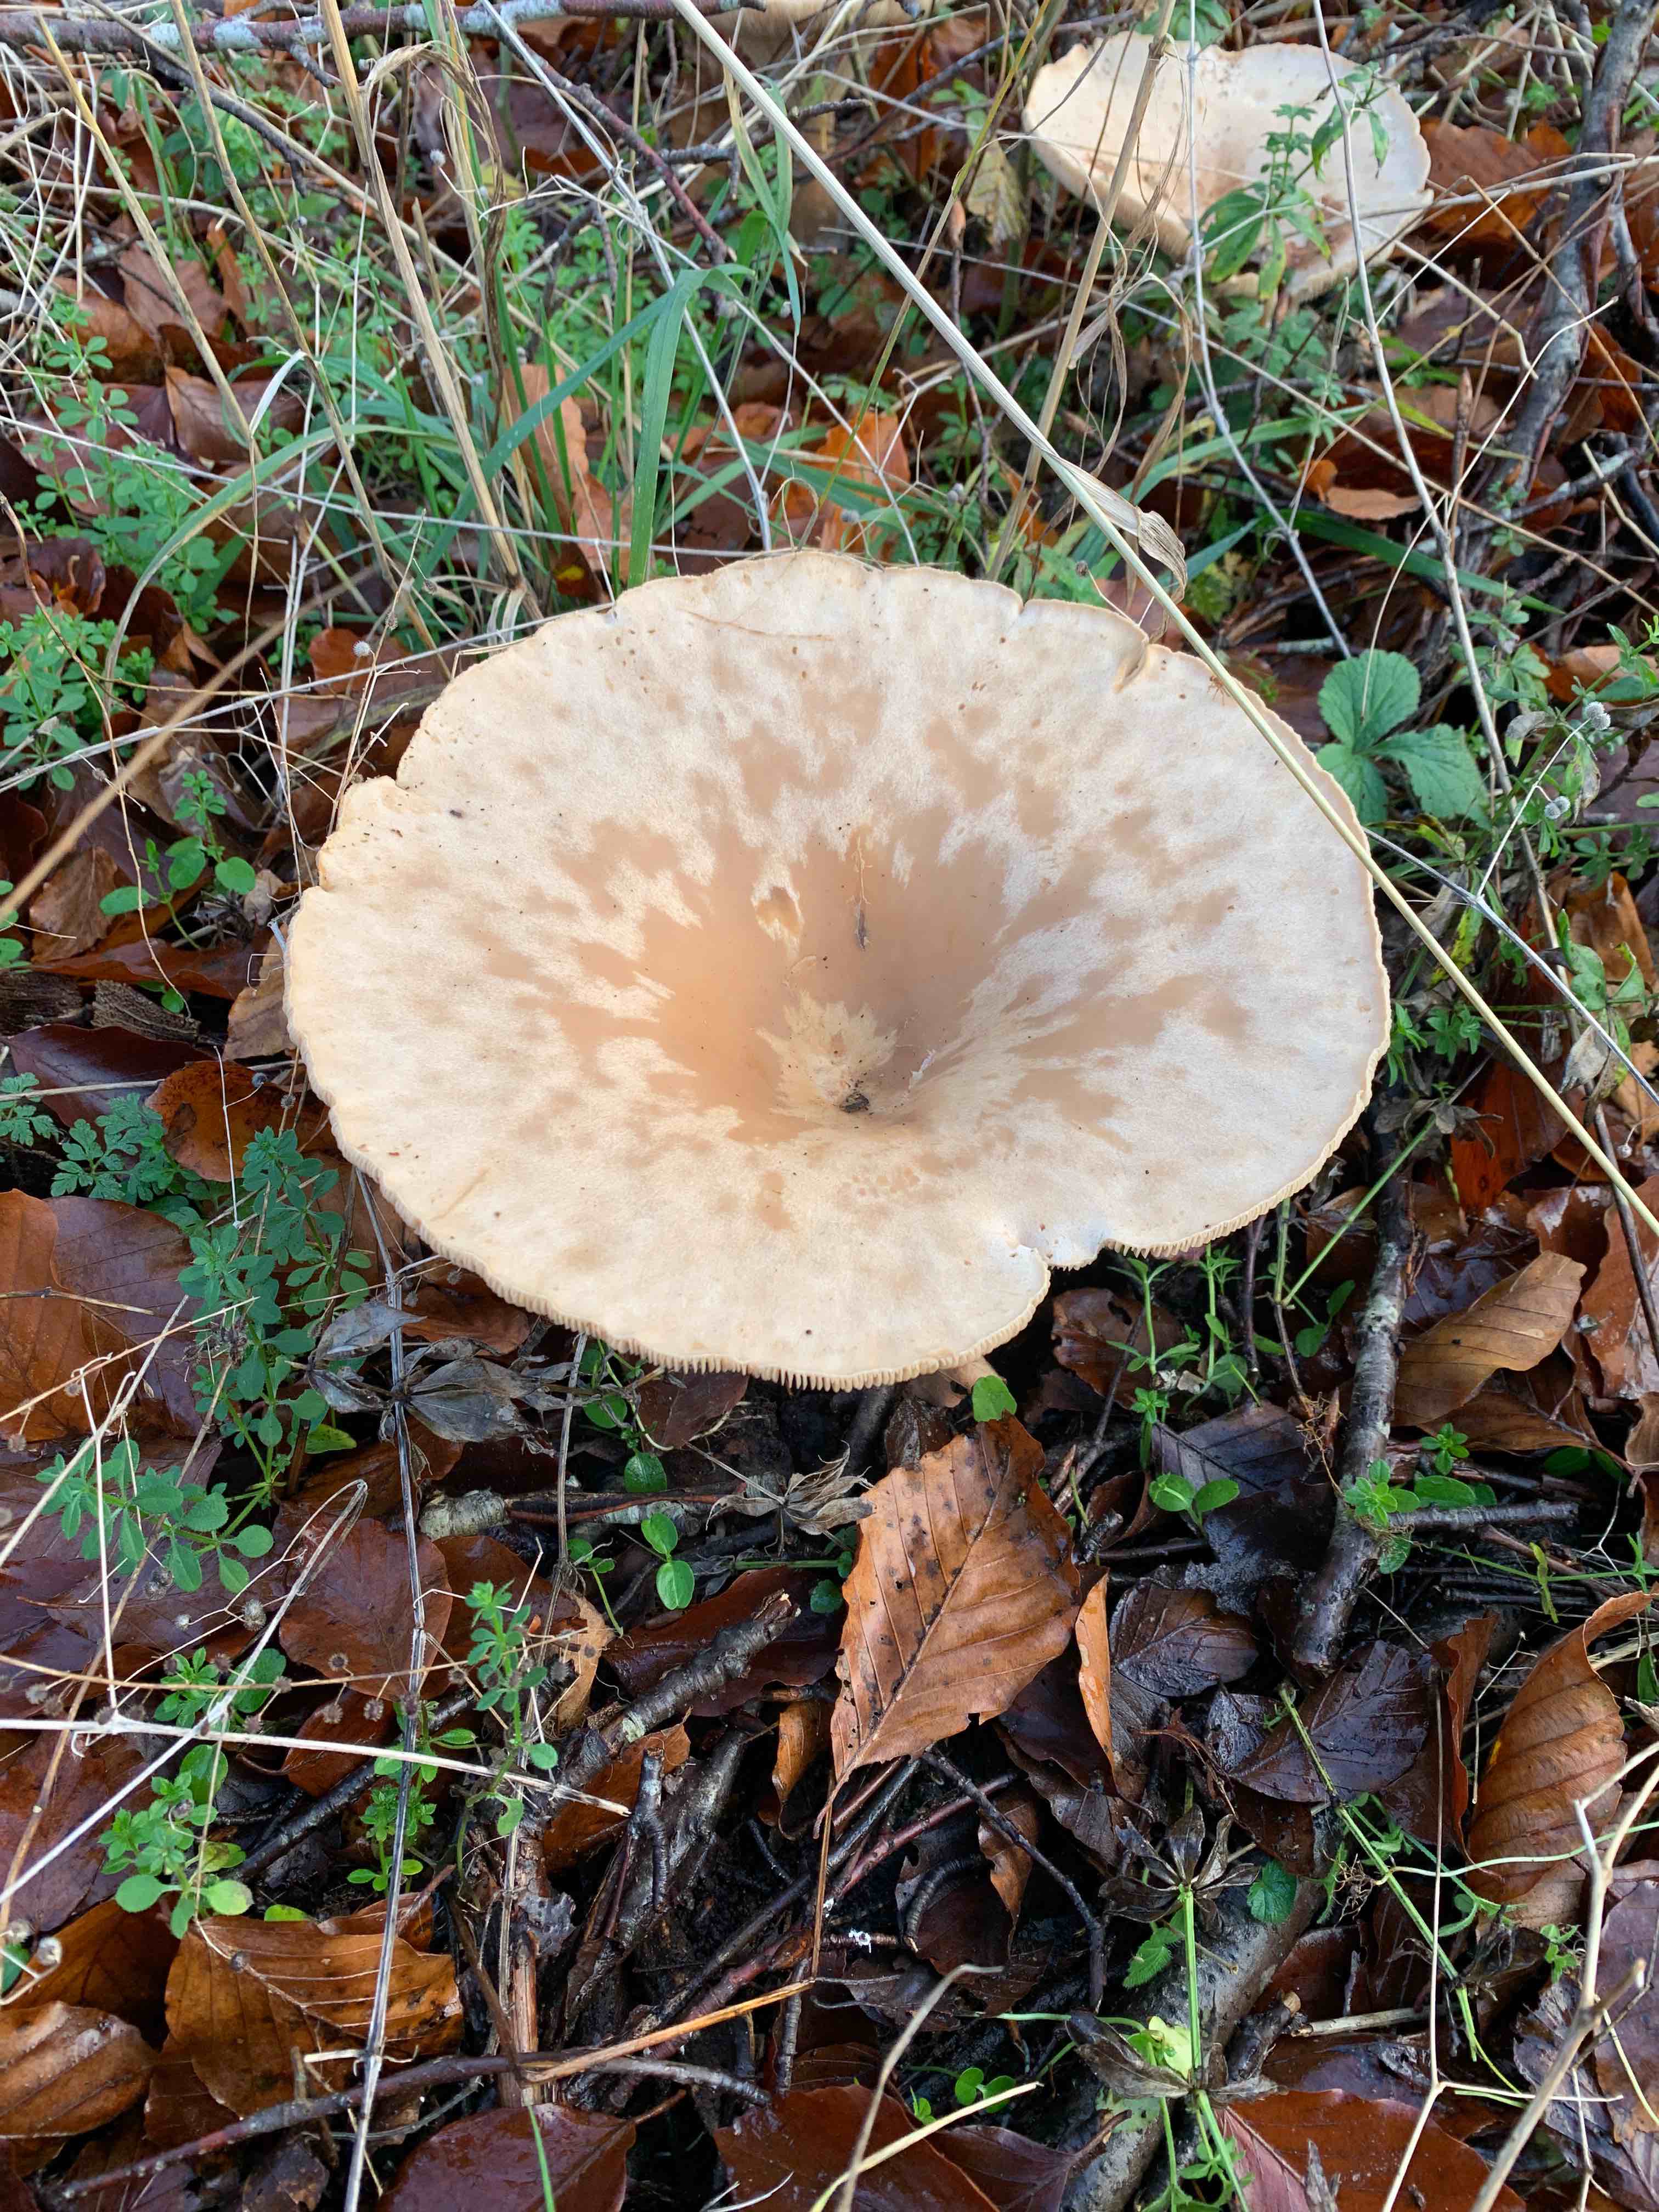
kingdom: Fungi
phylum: Basidiomycota
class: Agaricomycetes
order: Agaricales
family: Tricholomataceae
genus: Infundibulicybe
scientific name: Infundibulicybe geotropa
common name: stor tragthat
